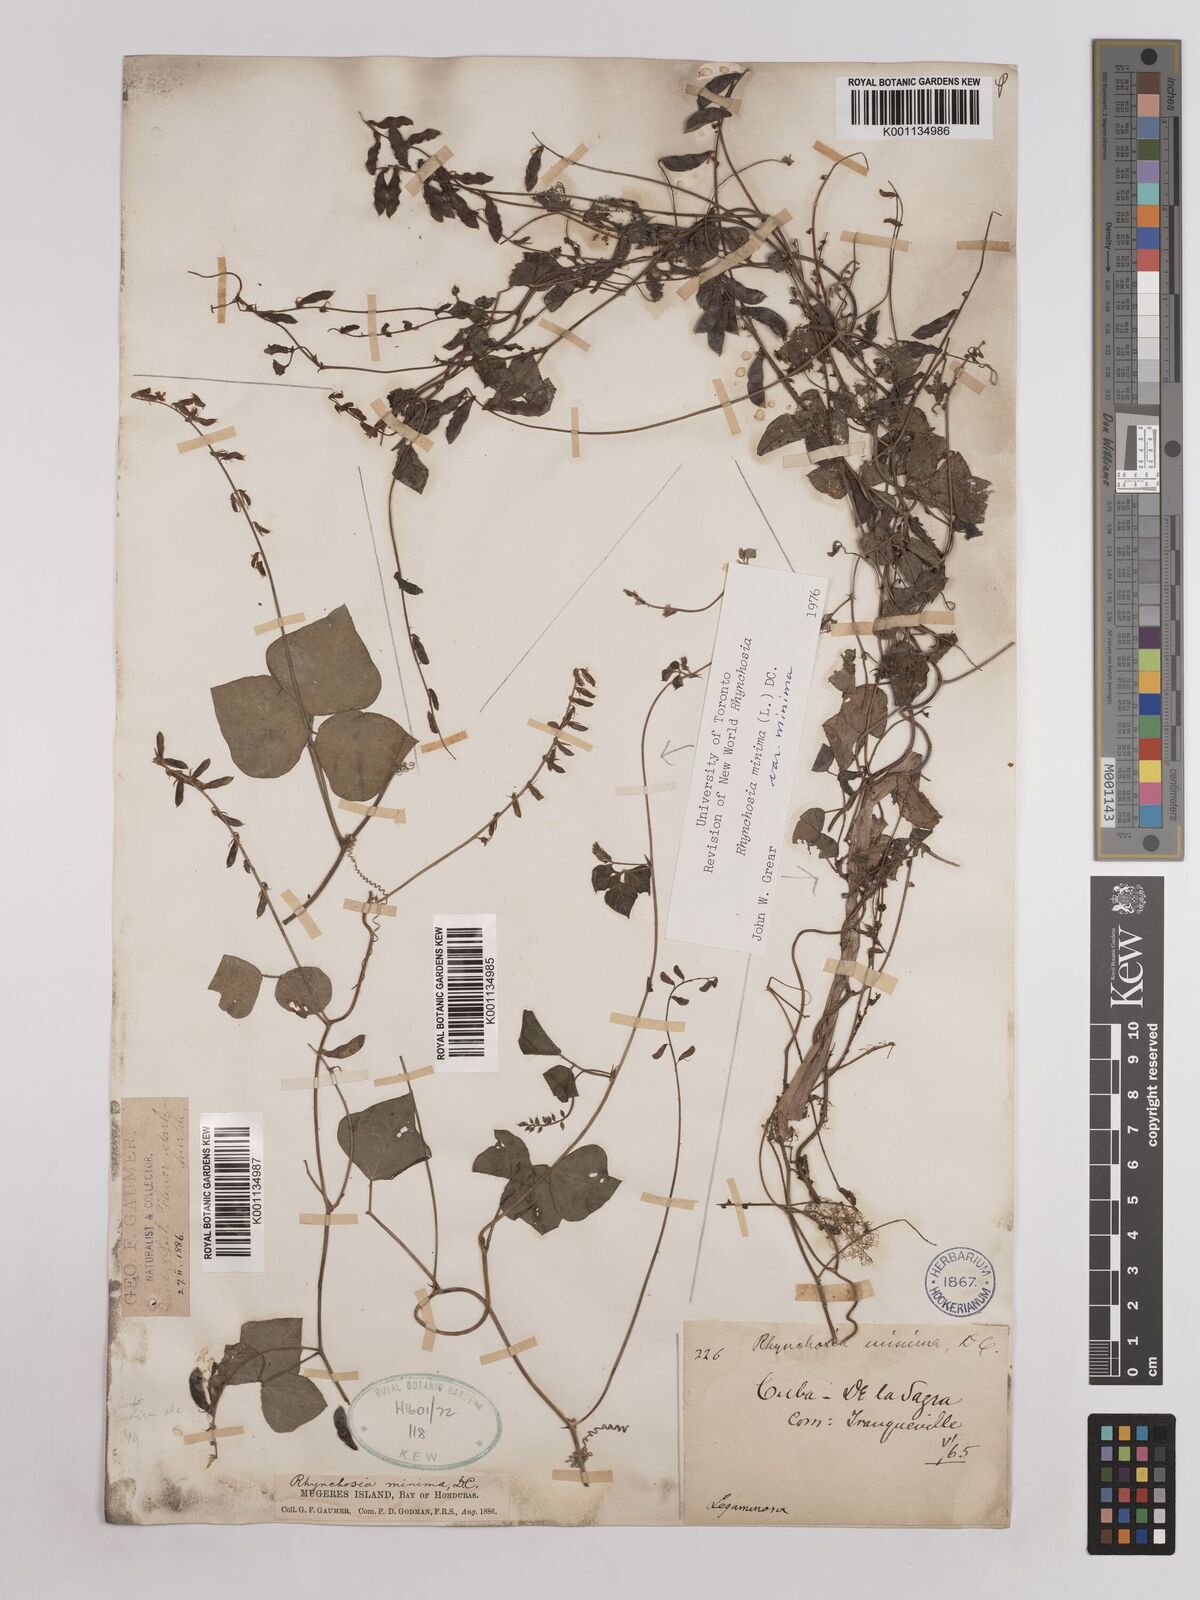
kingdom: Plantae
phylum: Tracheophyta
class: Magnoliopsida
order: Fabales
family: Fabaceae
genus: Rhynchosia
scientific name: Rhynchosia minima
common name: Least snoutbean
